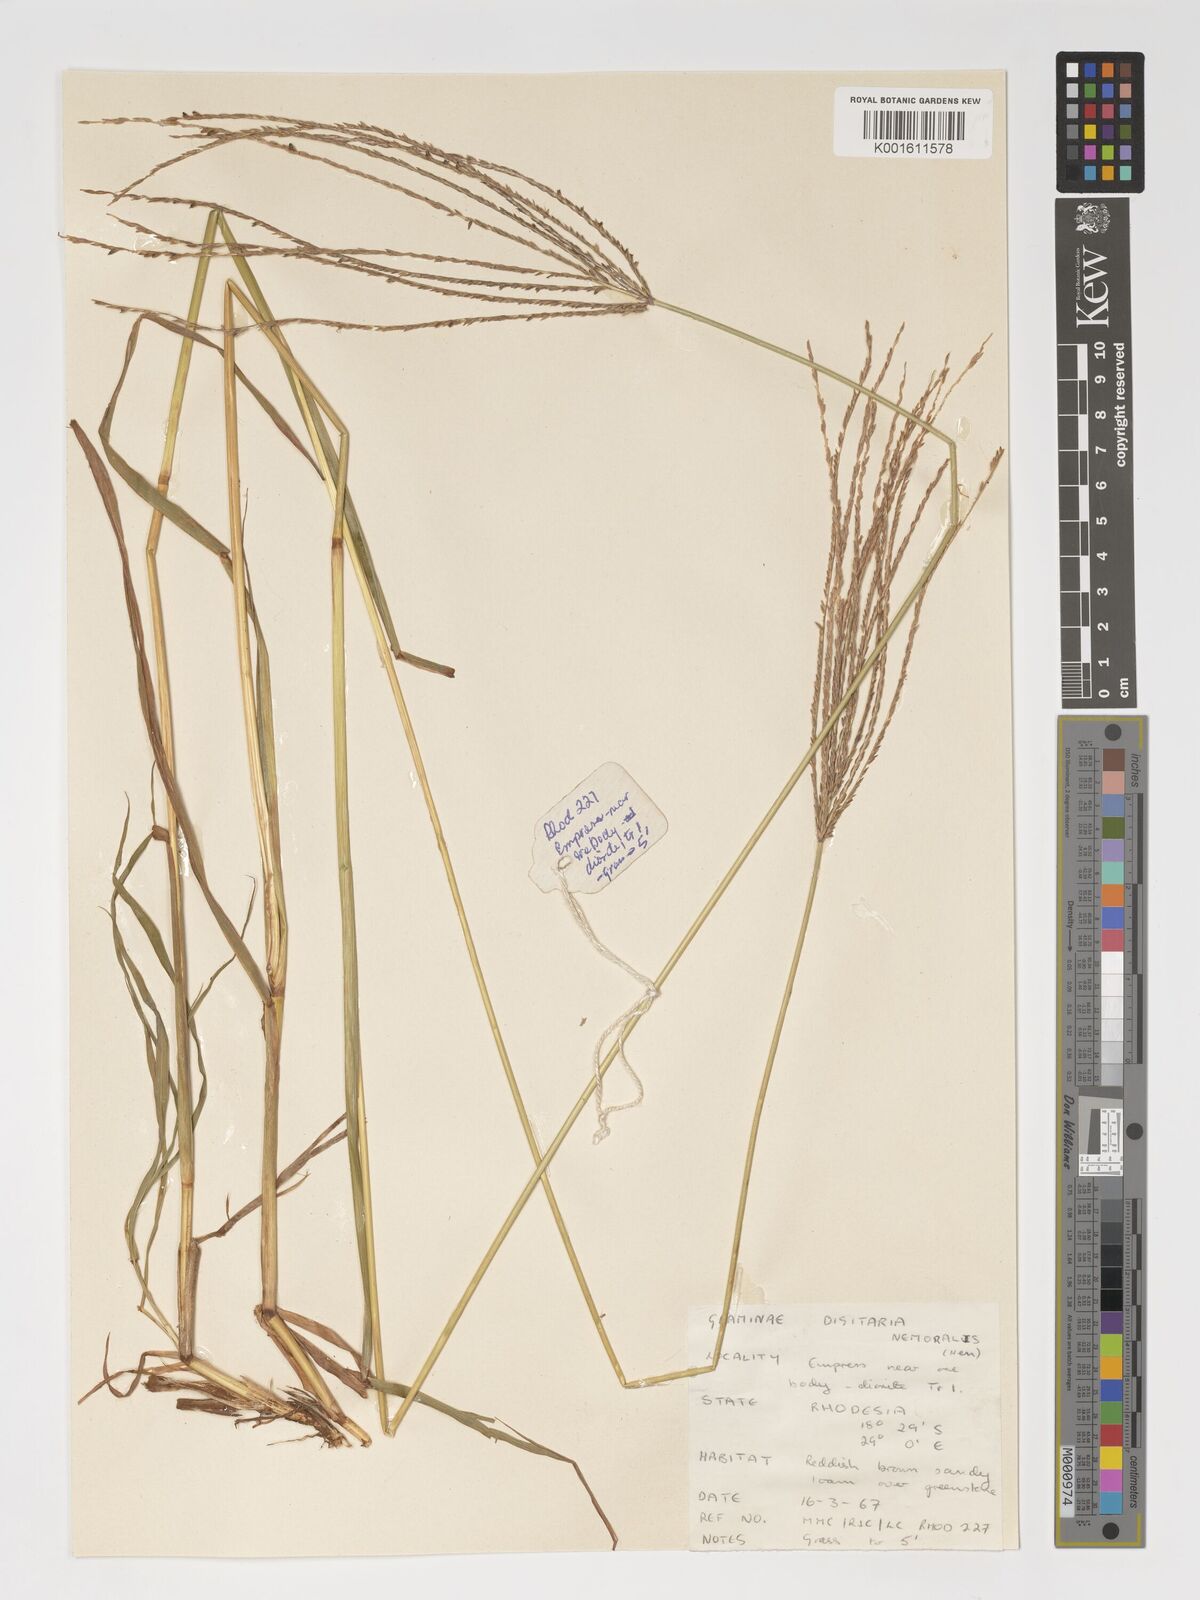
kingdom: Plantae
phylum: Tracheophyta
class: Liliopsida
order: Poales
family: Poaceae
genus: Digitaria
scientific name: Digitaria eriantha
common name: Digitgrass
